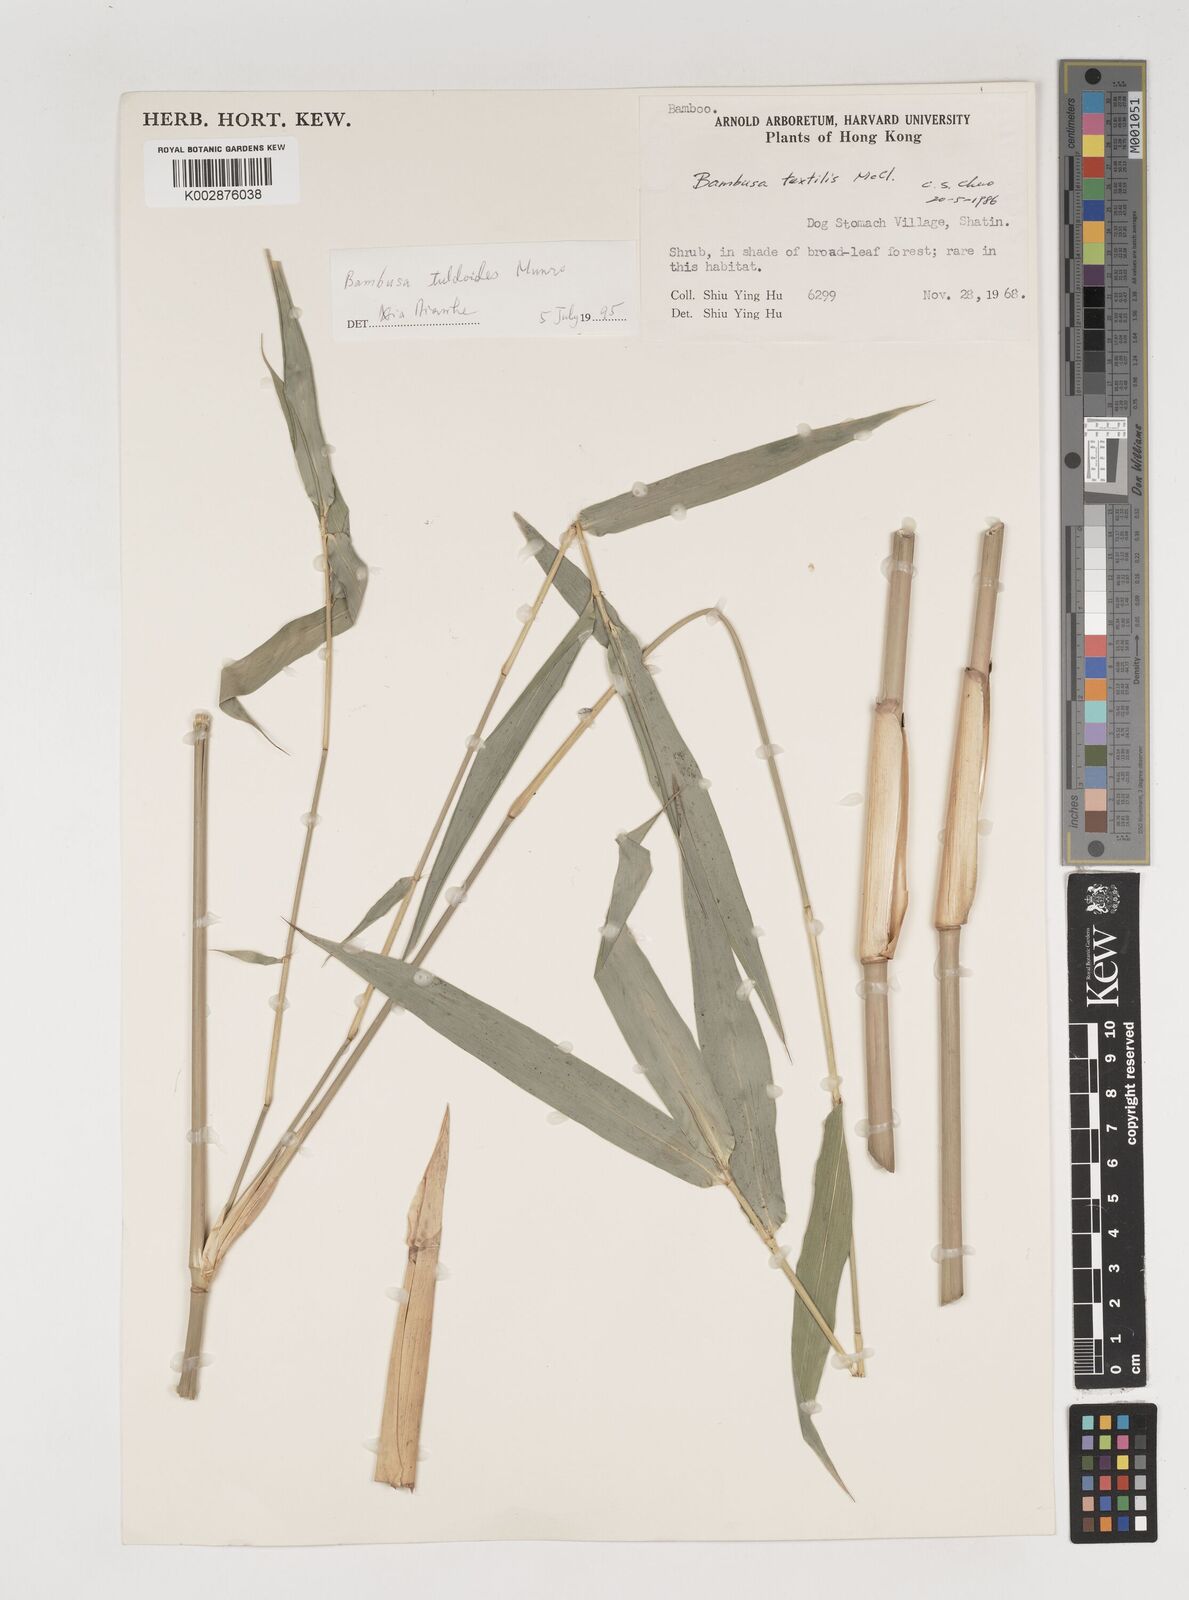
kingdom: Plantae
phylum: Tracheophyta
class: Liliopsida
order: Poales
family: Poaceae
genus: Bambusa
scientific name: Bambusa tuldoides
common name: Verdant bamboo
